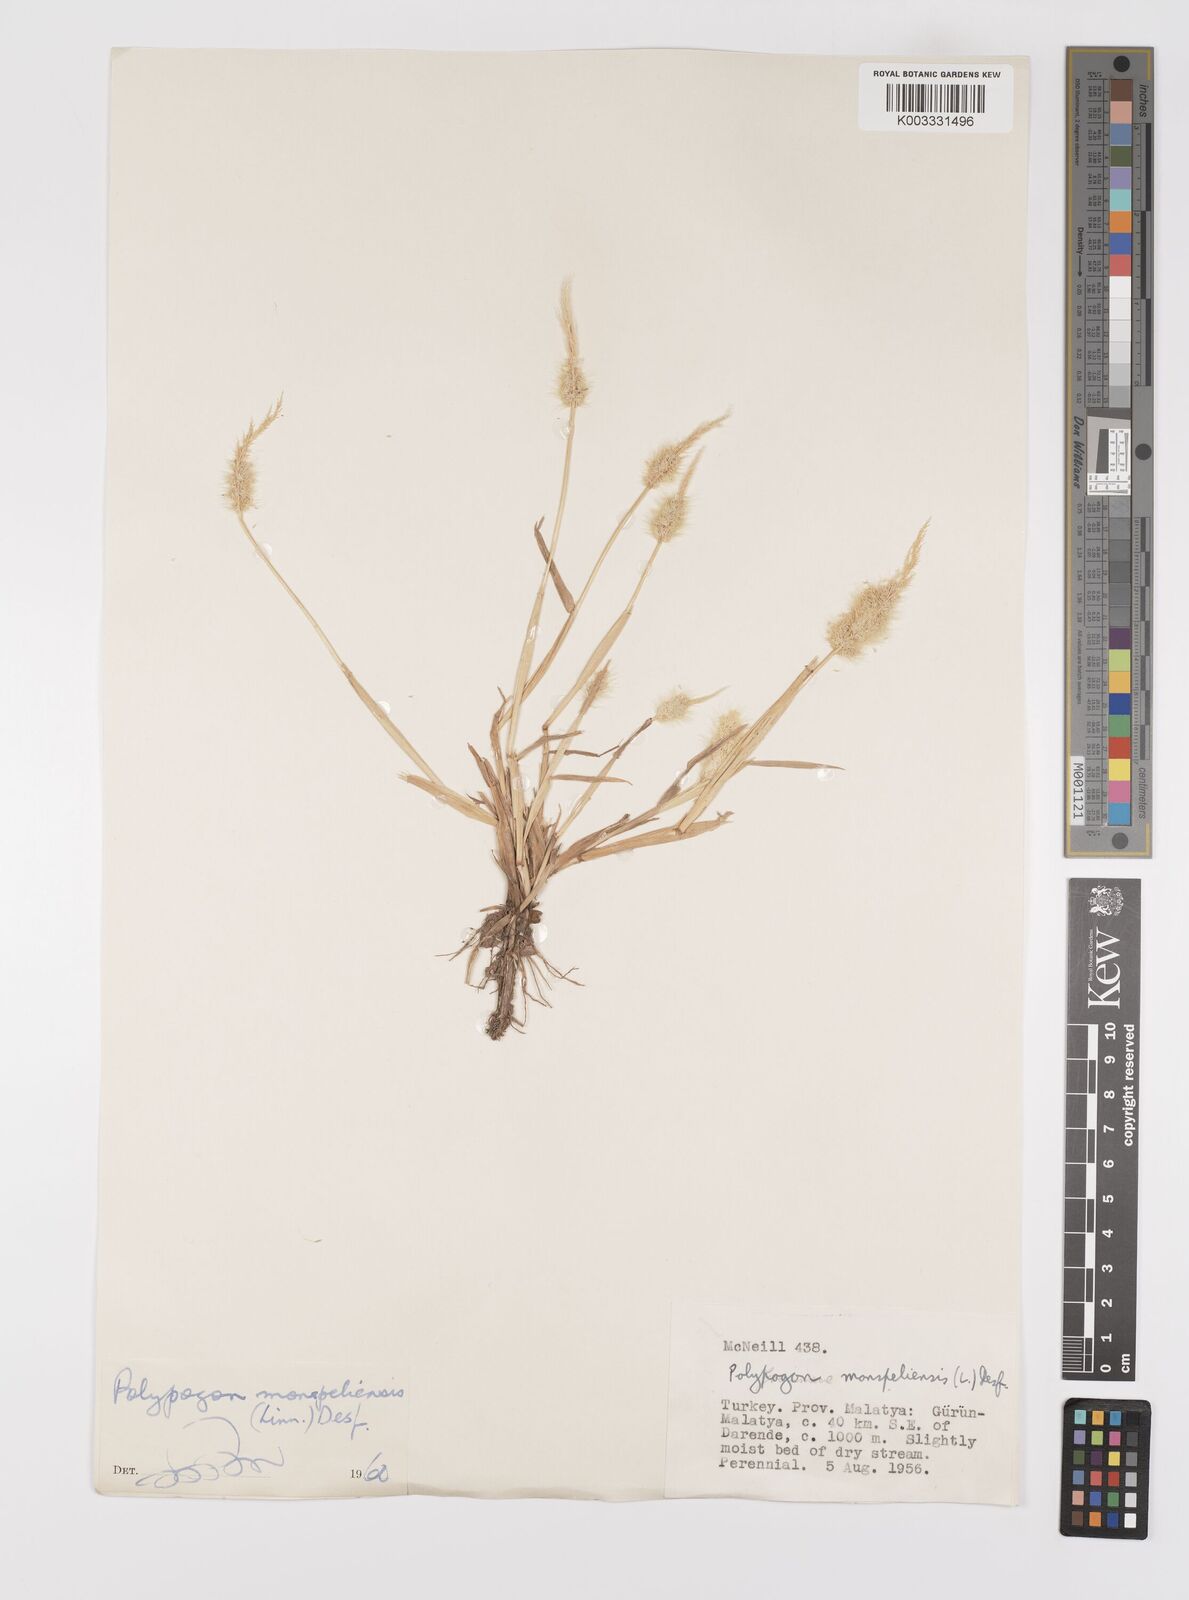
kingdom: Plantae
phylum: Tracheophyta
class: Liliopsida
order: Poales
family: Poaceae
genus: Polypogon
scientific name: Polypogon monspeliensis
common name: Annual rabbitsfoot grass
